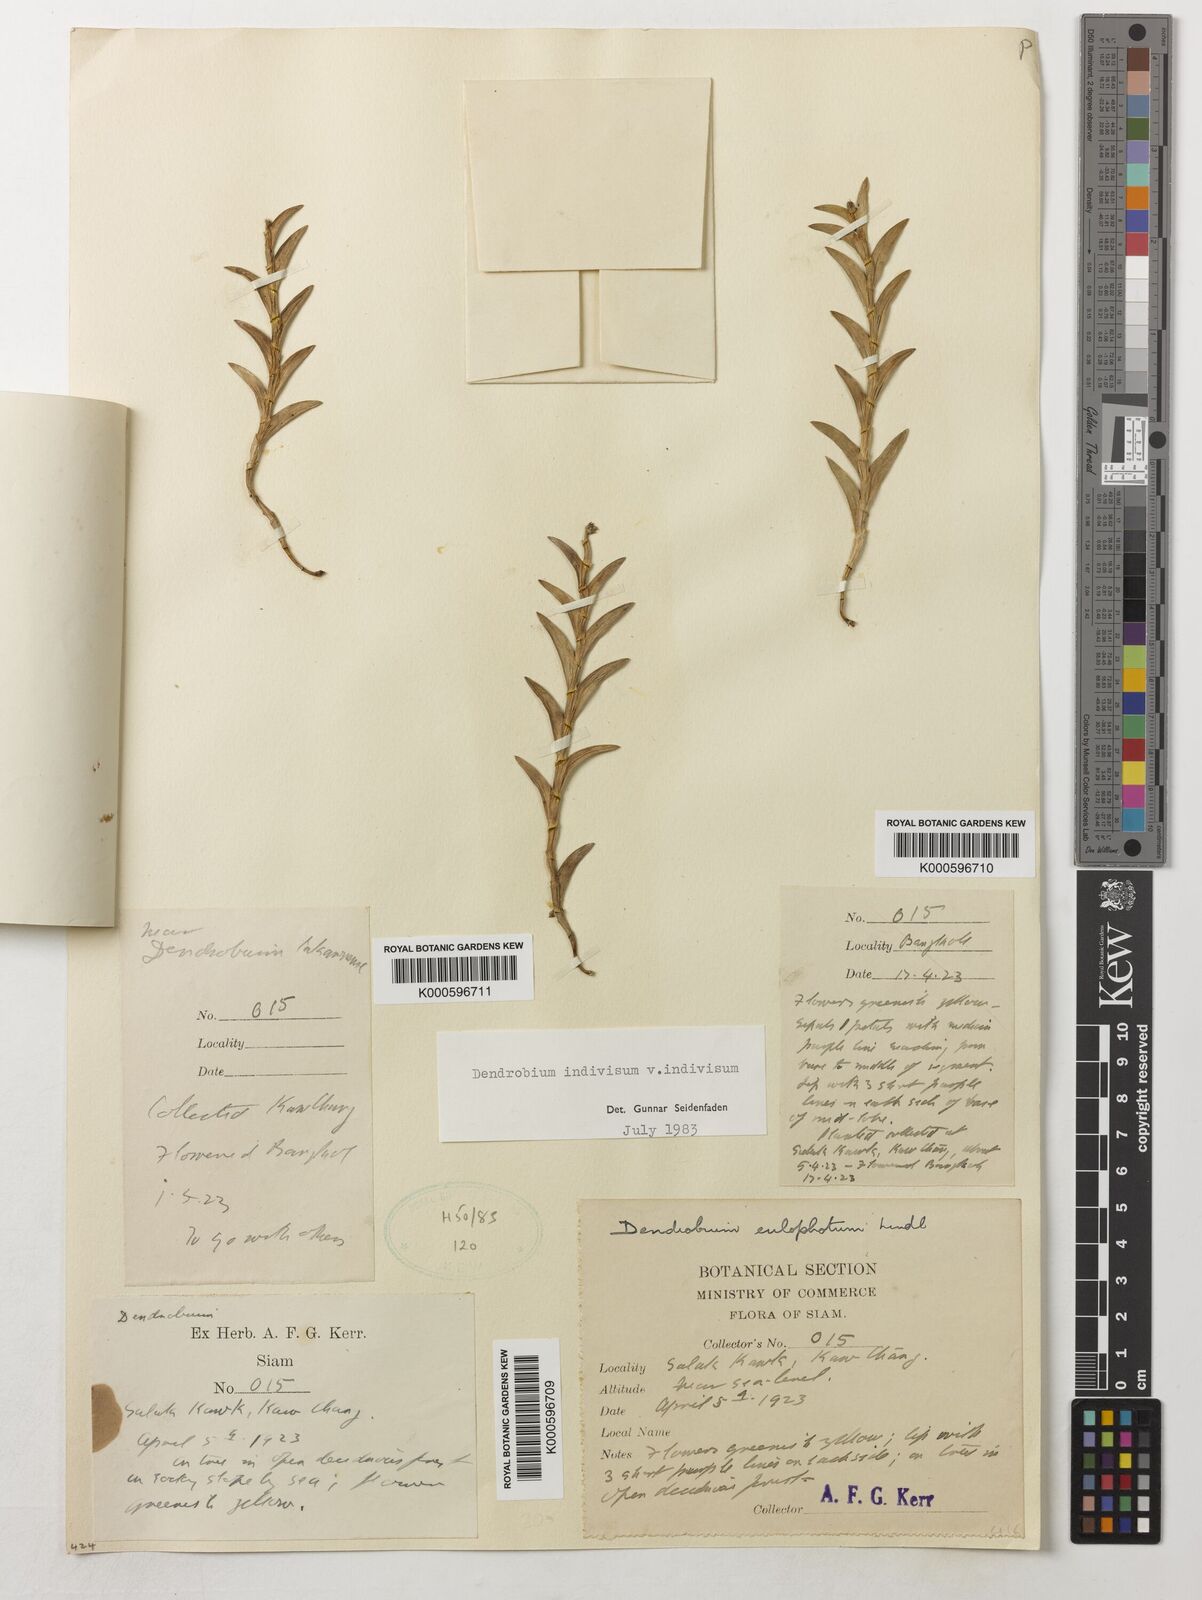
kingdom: Plantae
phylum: Tracheophyta
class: Liliopsida
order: Asparagales
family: Orchidaceae
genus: Dendrobium
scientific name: Dendrobium indivisum
